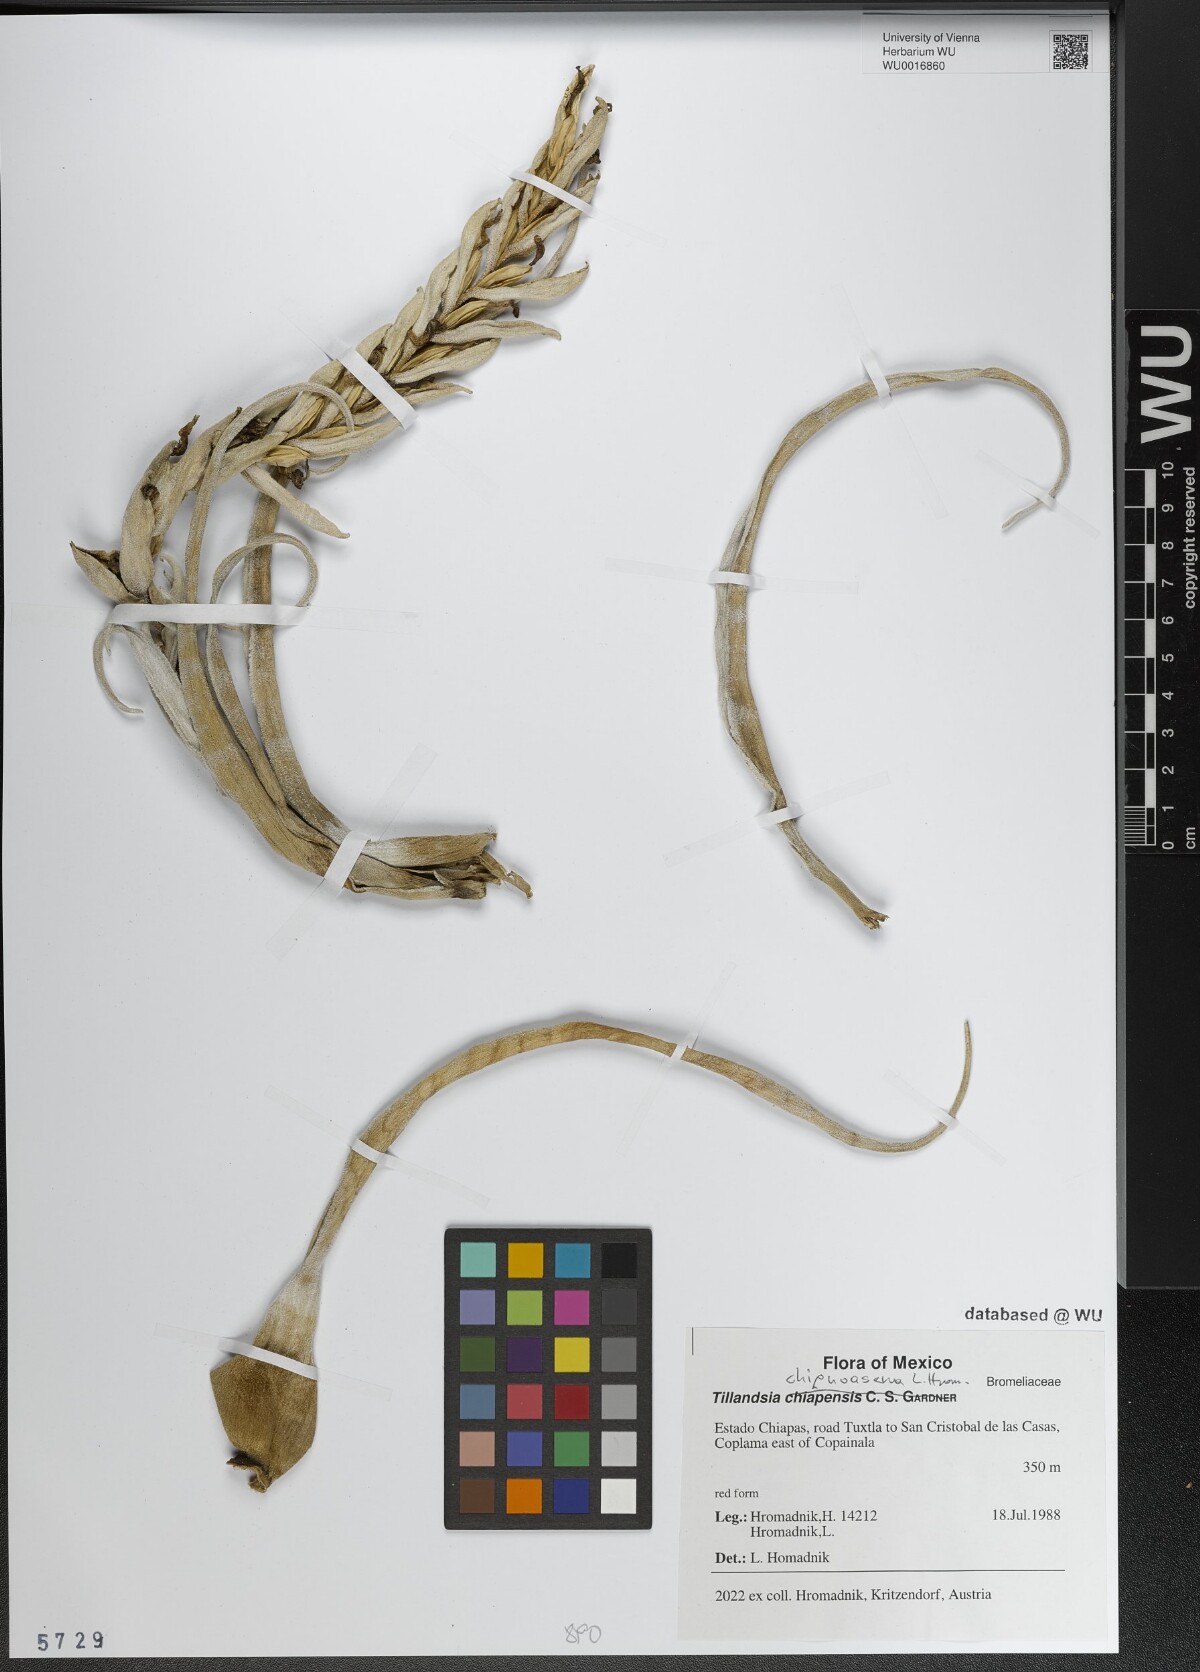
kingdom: Plantae
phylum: Tracheophyta
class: Liliopsida
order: Poales
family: Bromeliaceae
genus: Tillandsia
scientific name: Tillandsia
